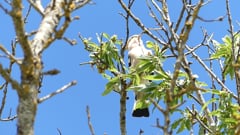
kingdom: Animalia
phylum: Chordata
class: Aves
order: Bucerotiformes
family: Upupidae
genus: Upupa
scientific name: Upupa epops
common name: Eurasian hoopoe
